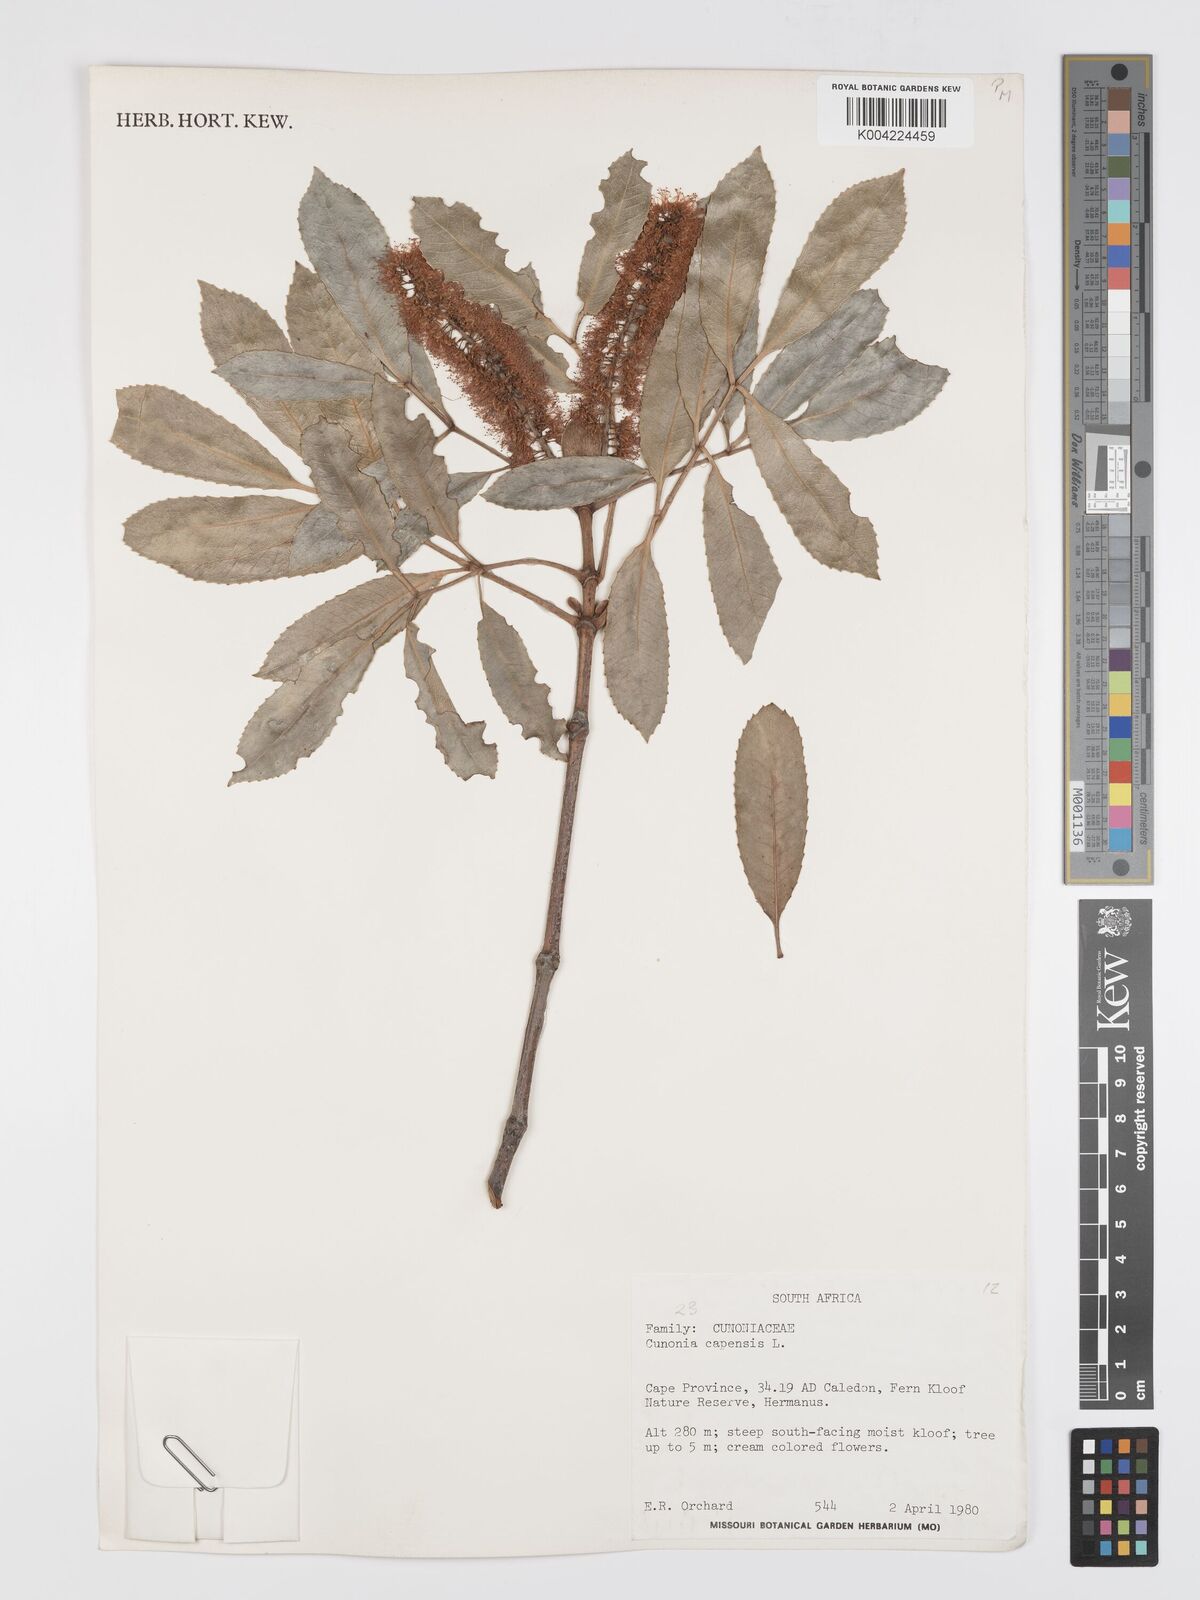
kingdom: Plantae
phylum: Tracheophyta
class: Magnoliopsida
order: Oxalidales
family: Cunoniaceae
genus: Cunonia
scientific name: Cunonia capensis
